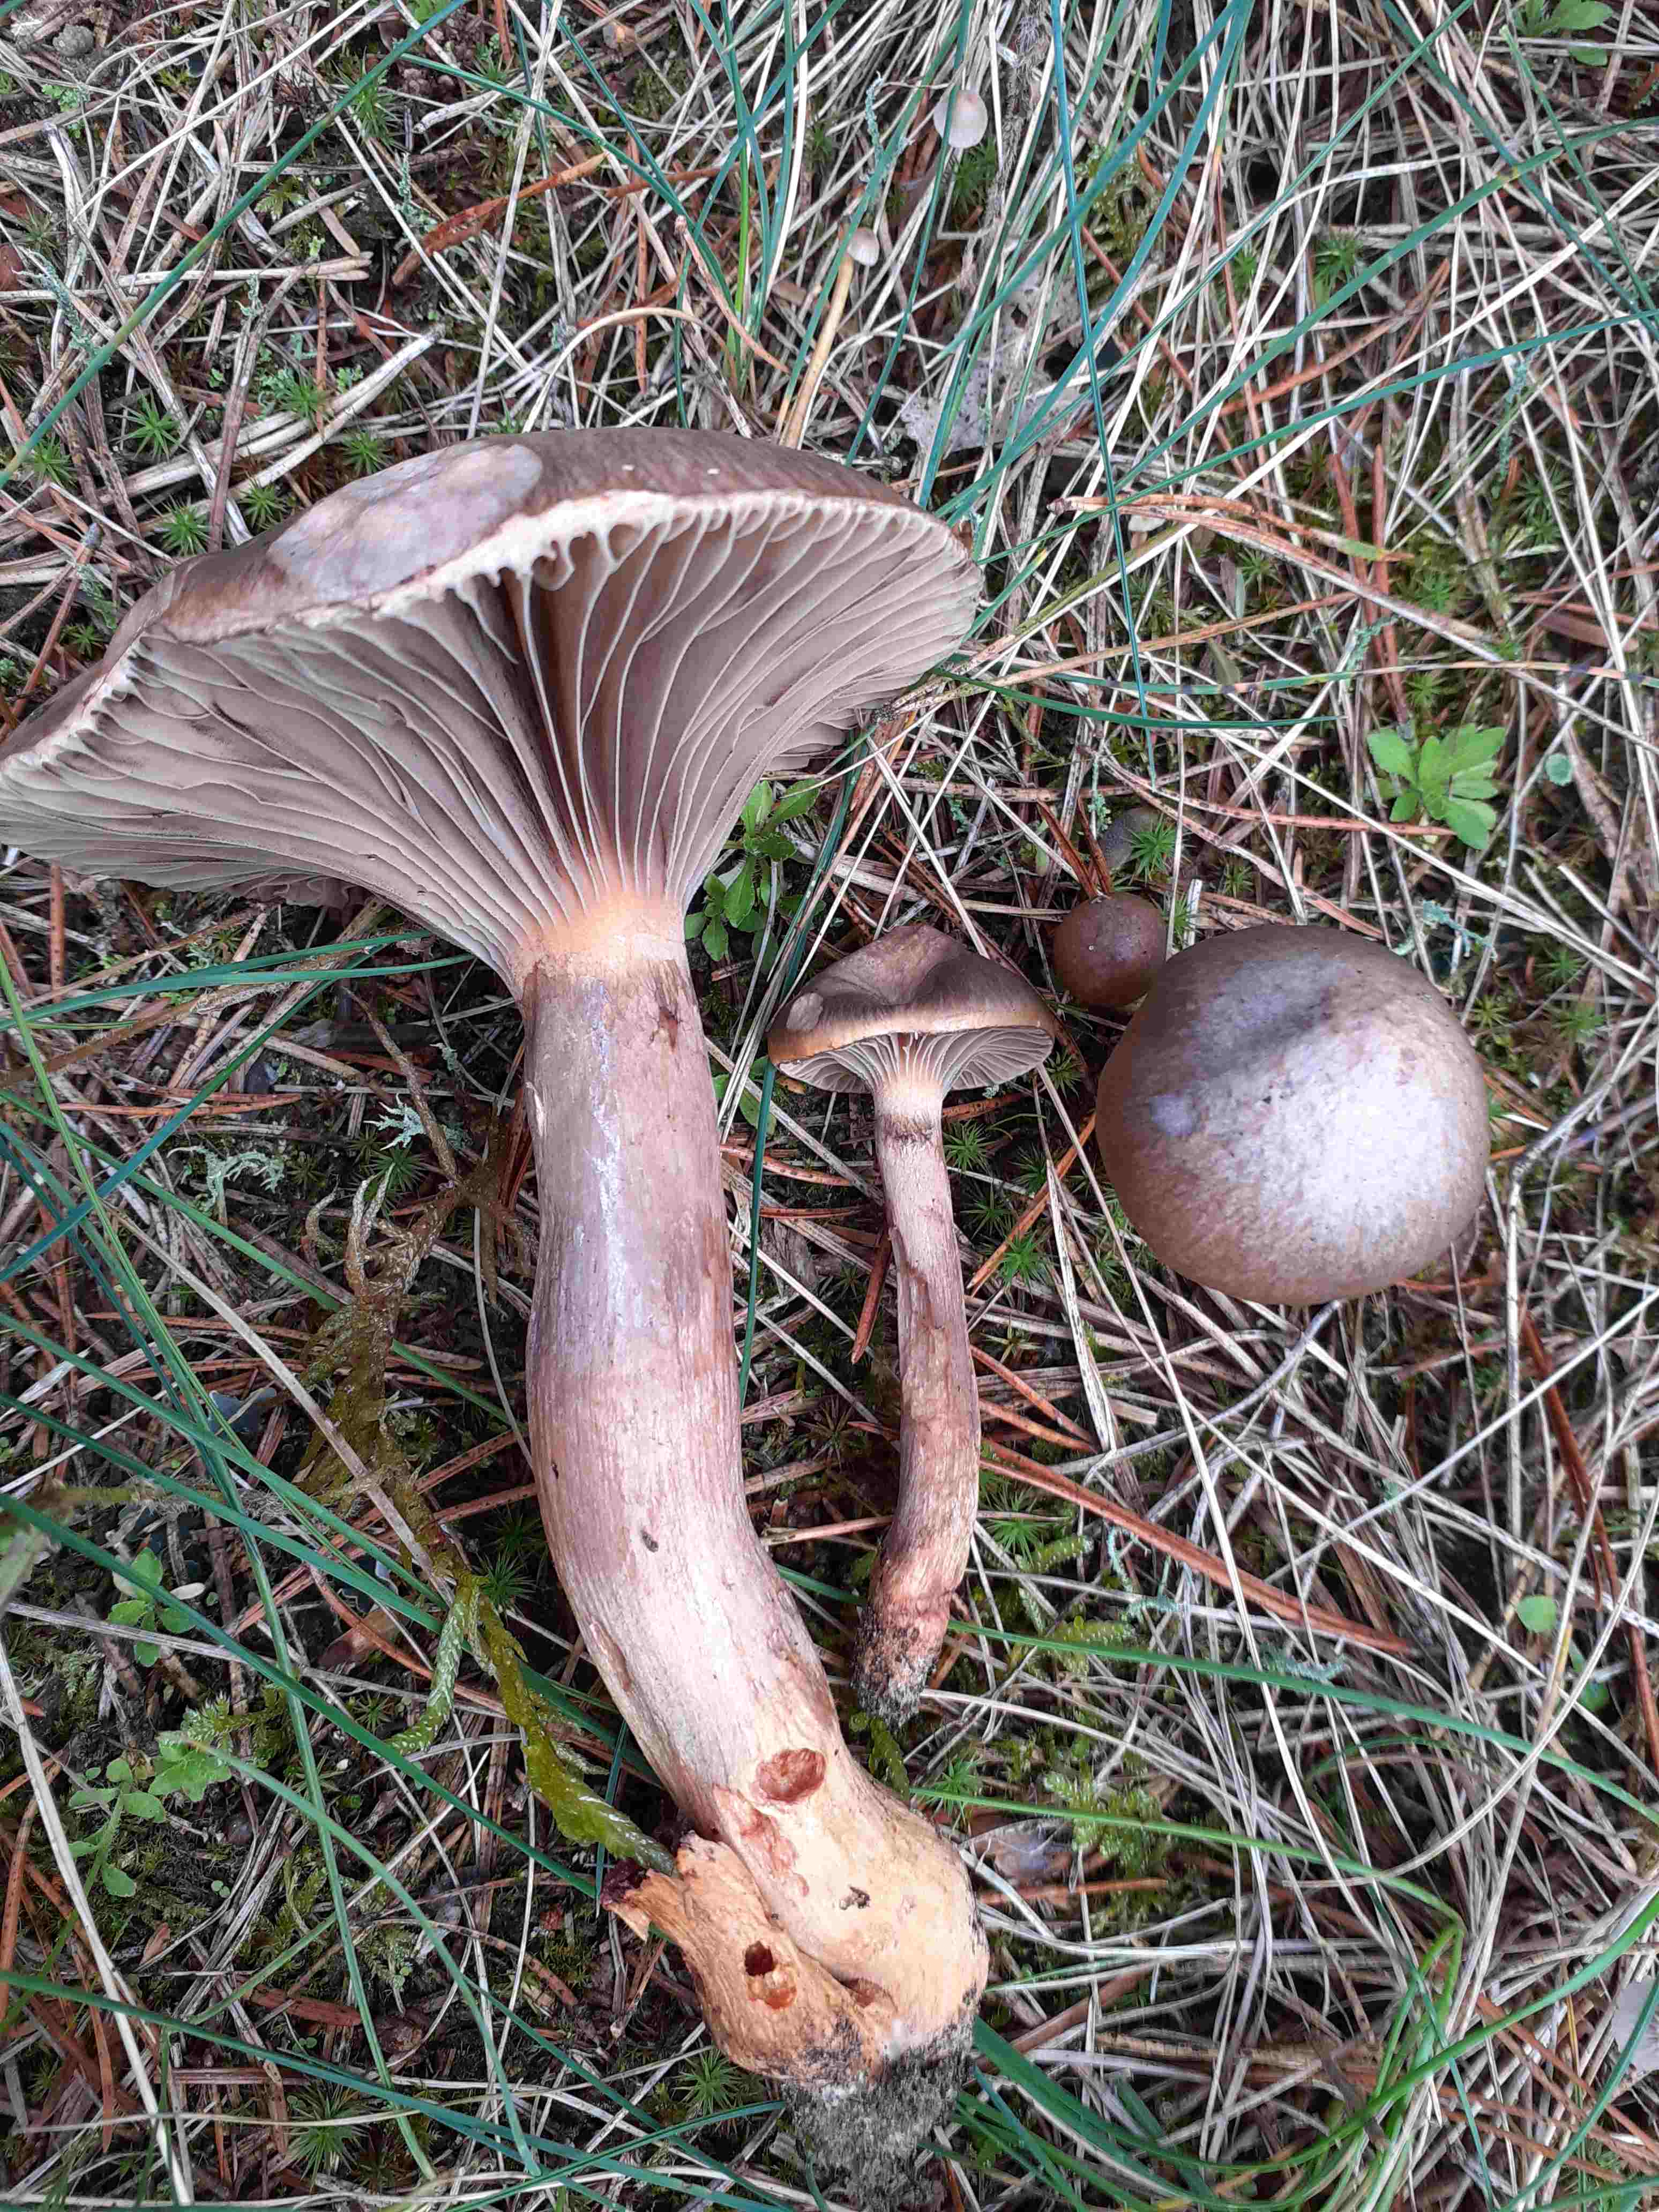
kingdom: Fungi
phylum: Basidiomycota
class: Agaricomycetes
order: Boletales
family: Gomphidiaceae
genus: Chroogomphus
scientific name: Chroogomphus rutilus
